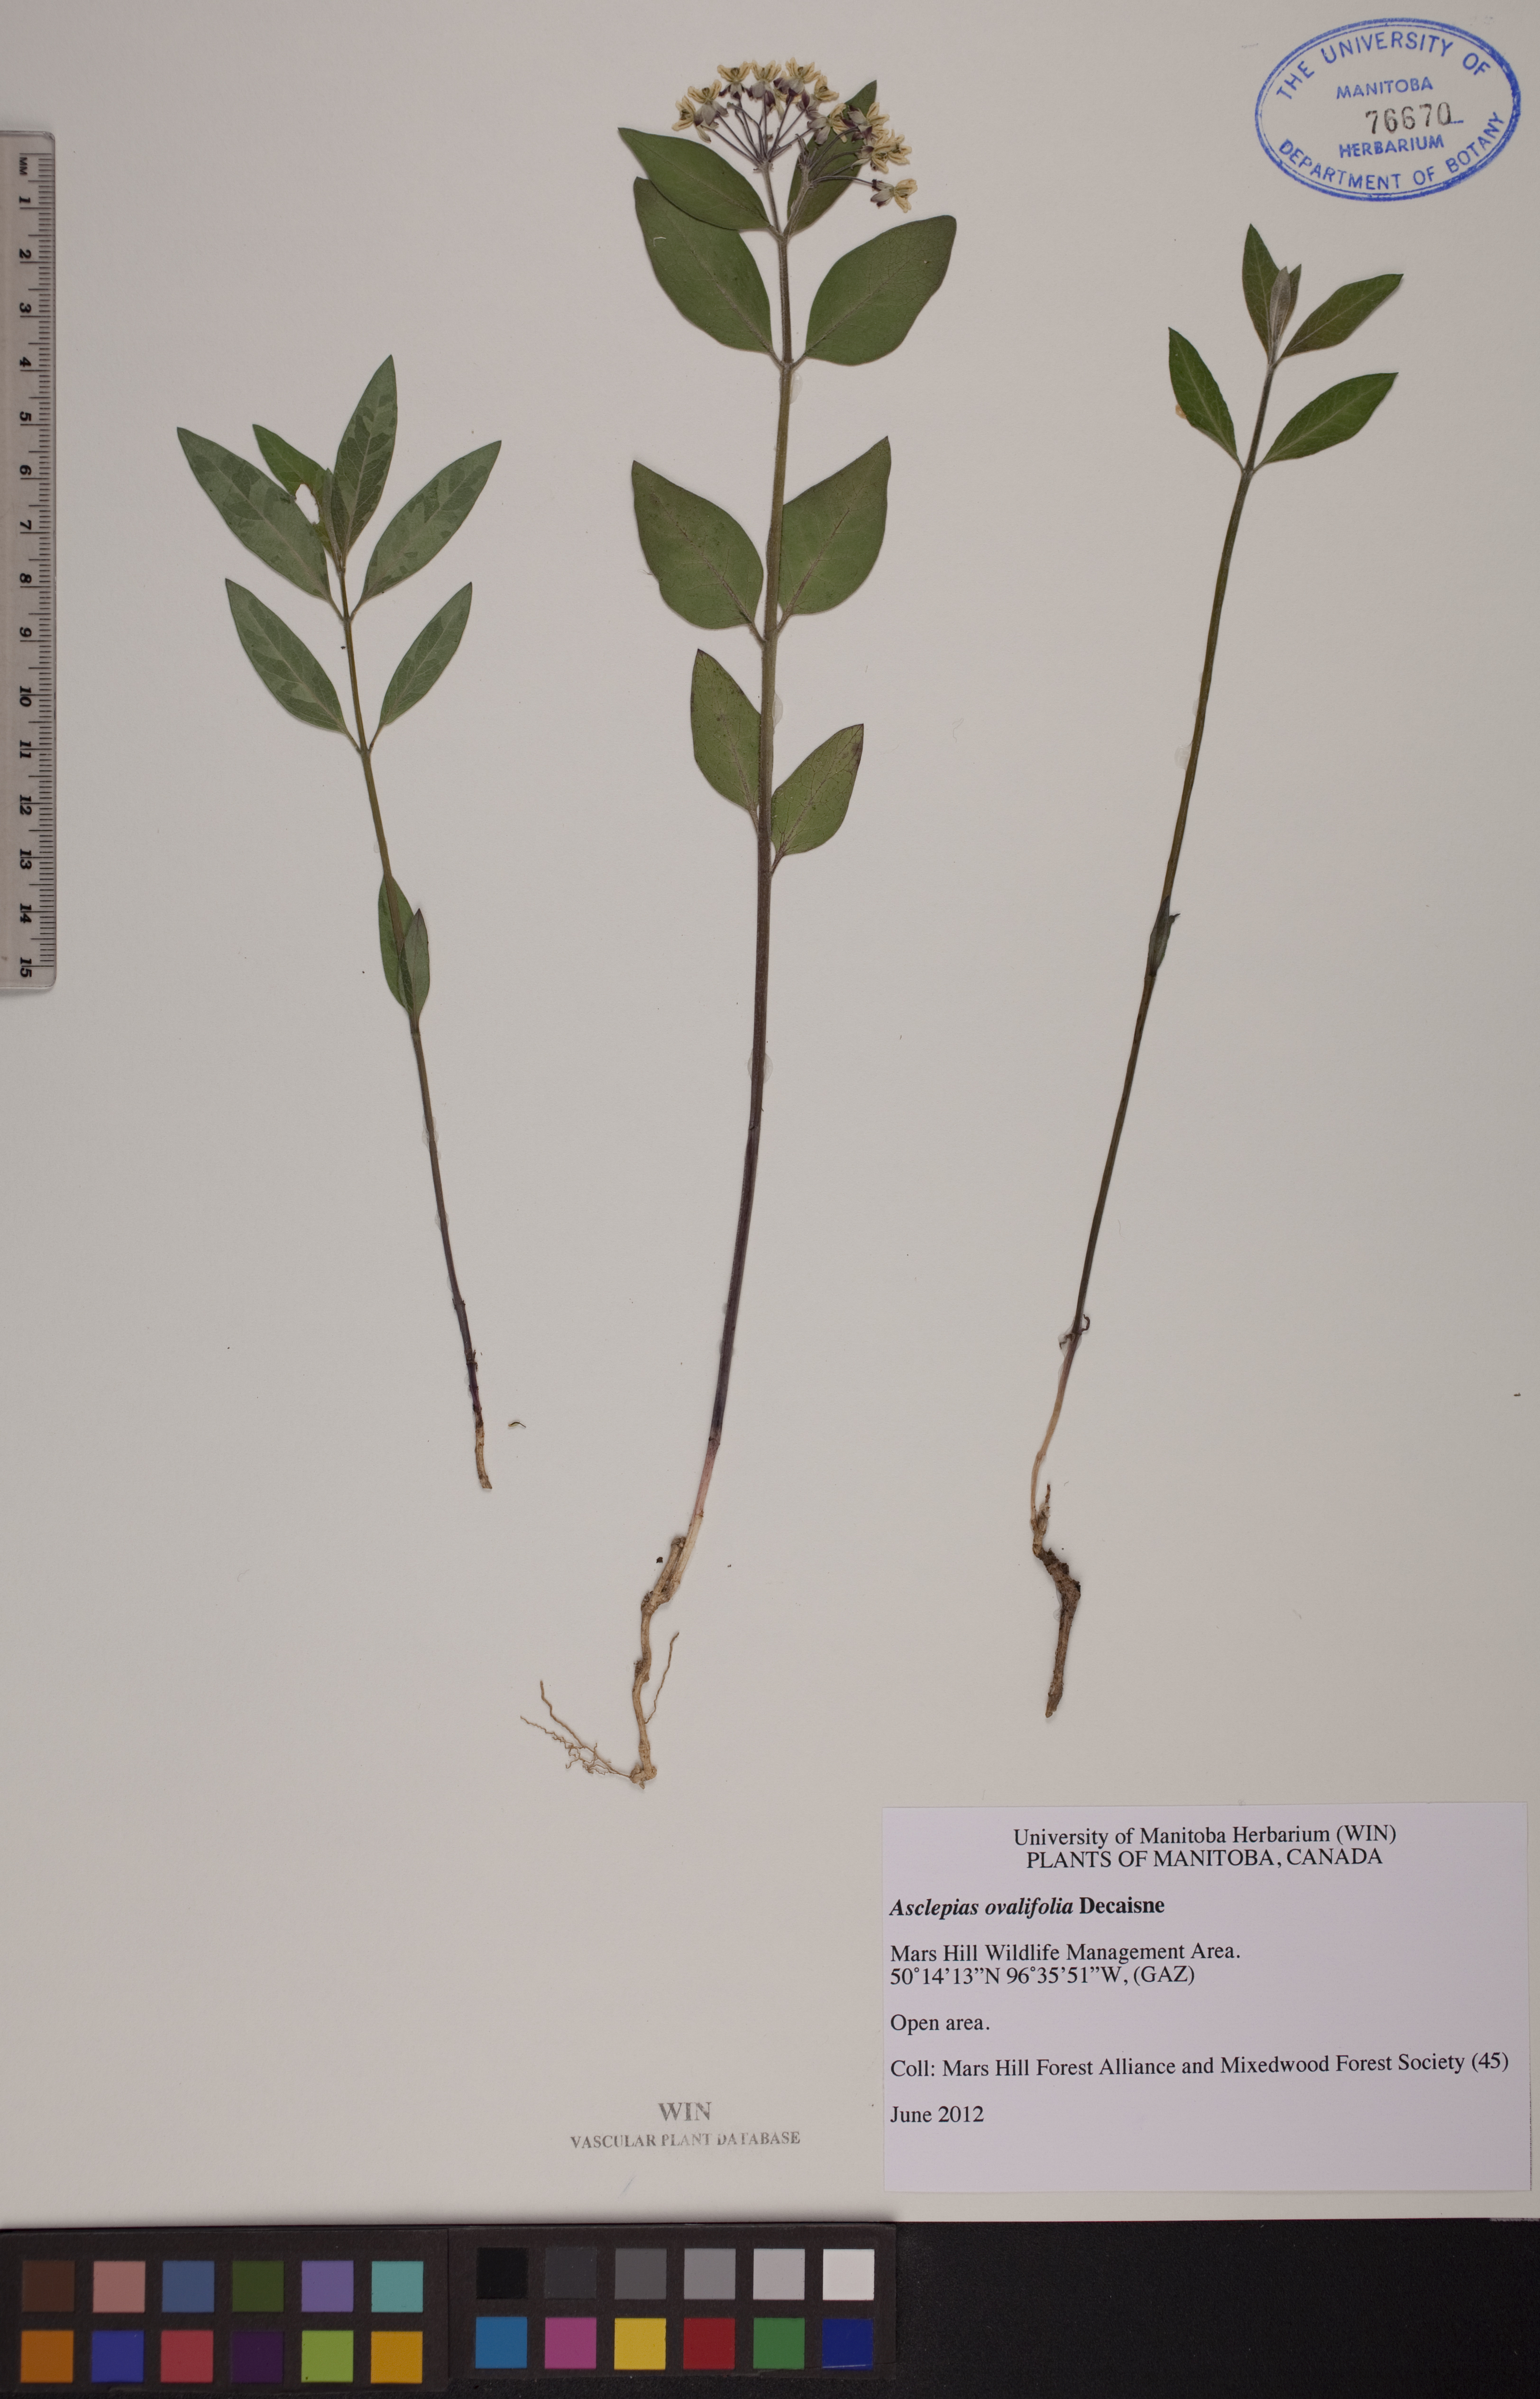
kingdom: Plantae
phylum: Tracheophyta
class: Magnoliopsida
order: Gentianales
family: Apocynaceae
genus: Asclepias
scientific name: Asclepias ovalifolia
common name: Dwarf milkweed
